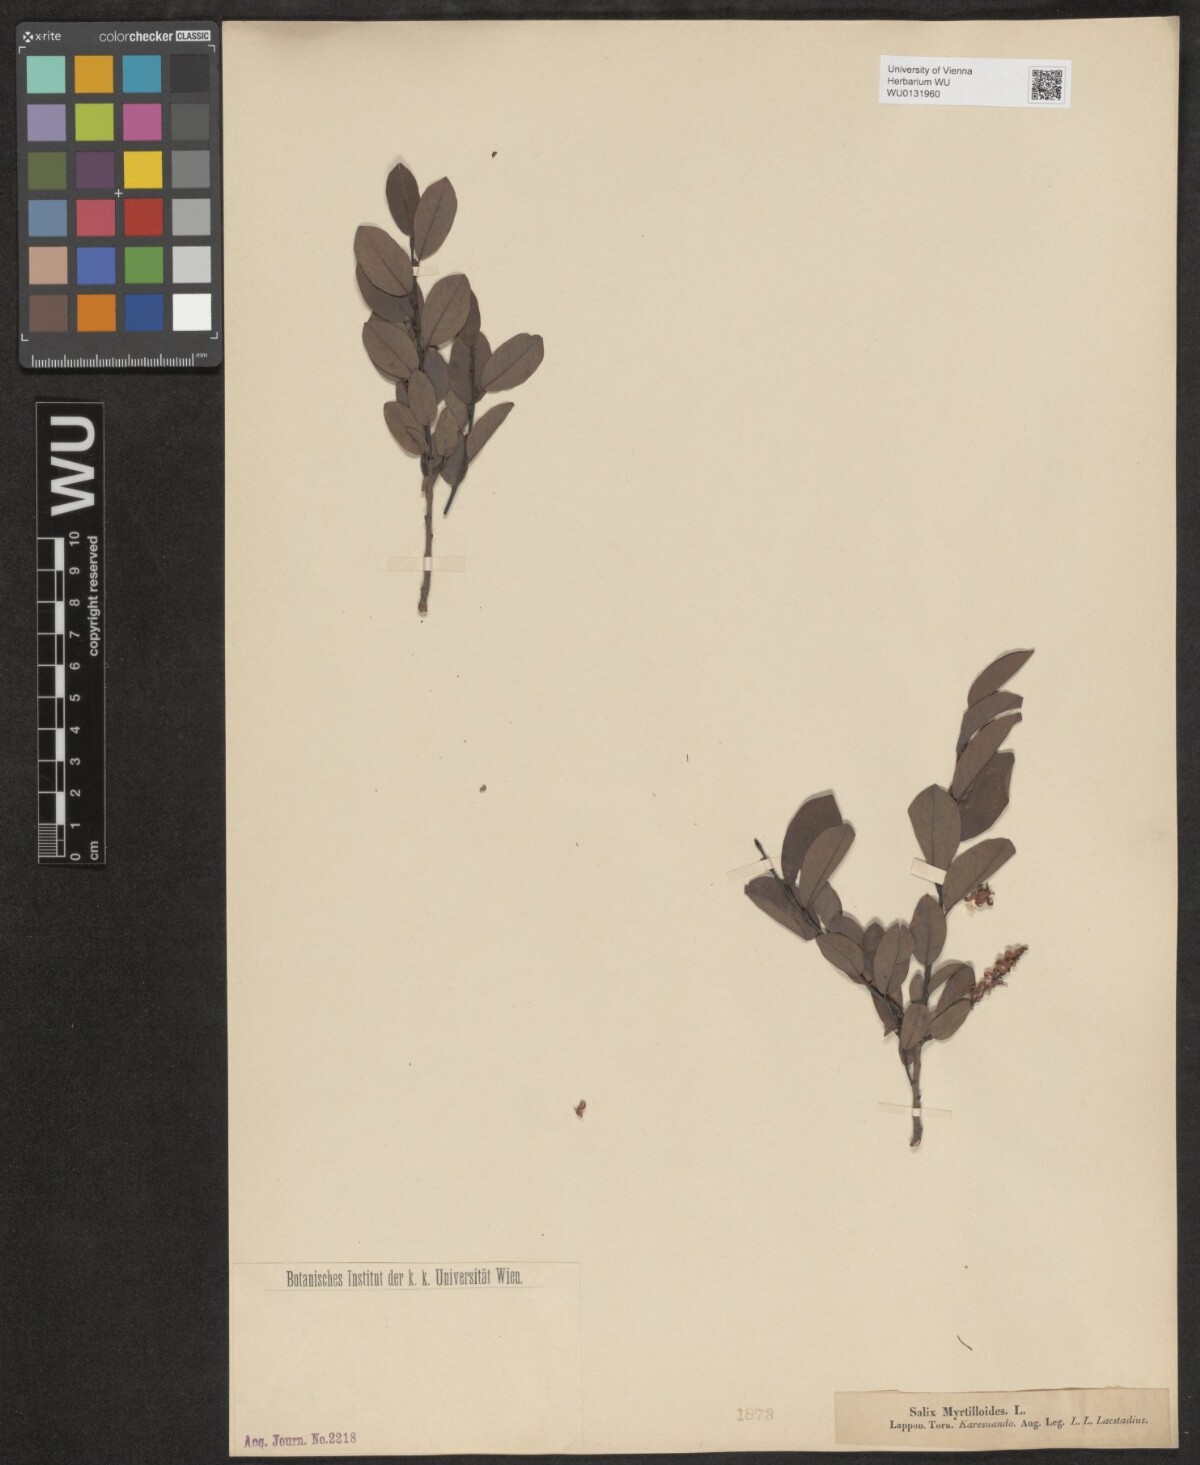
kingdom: Plantae
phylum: Tracheophyta
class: Magnoliopsida
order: Malpighiales
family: Salicaceae
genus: Salix
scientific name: Salix myrtilloides
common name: Myrtle-leaved willow
